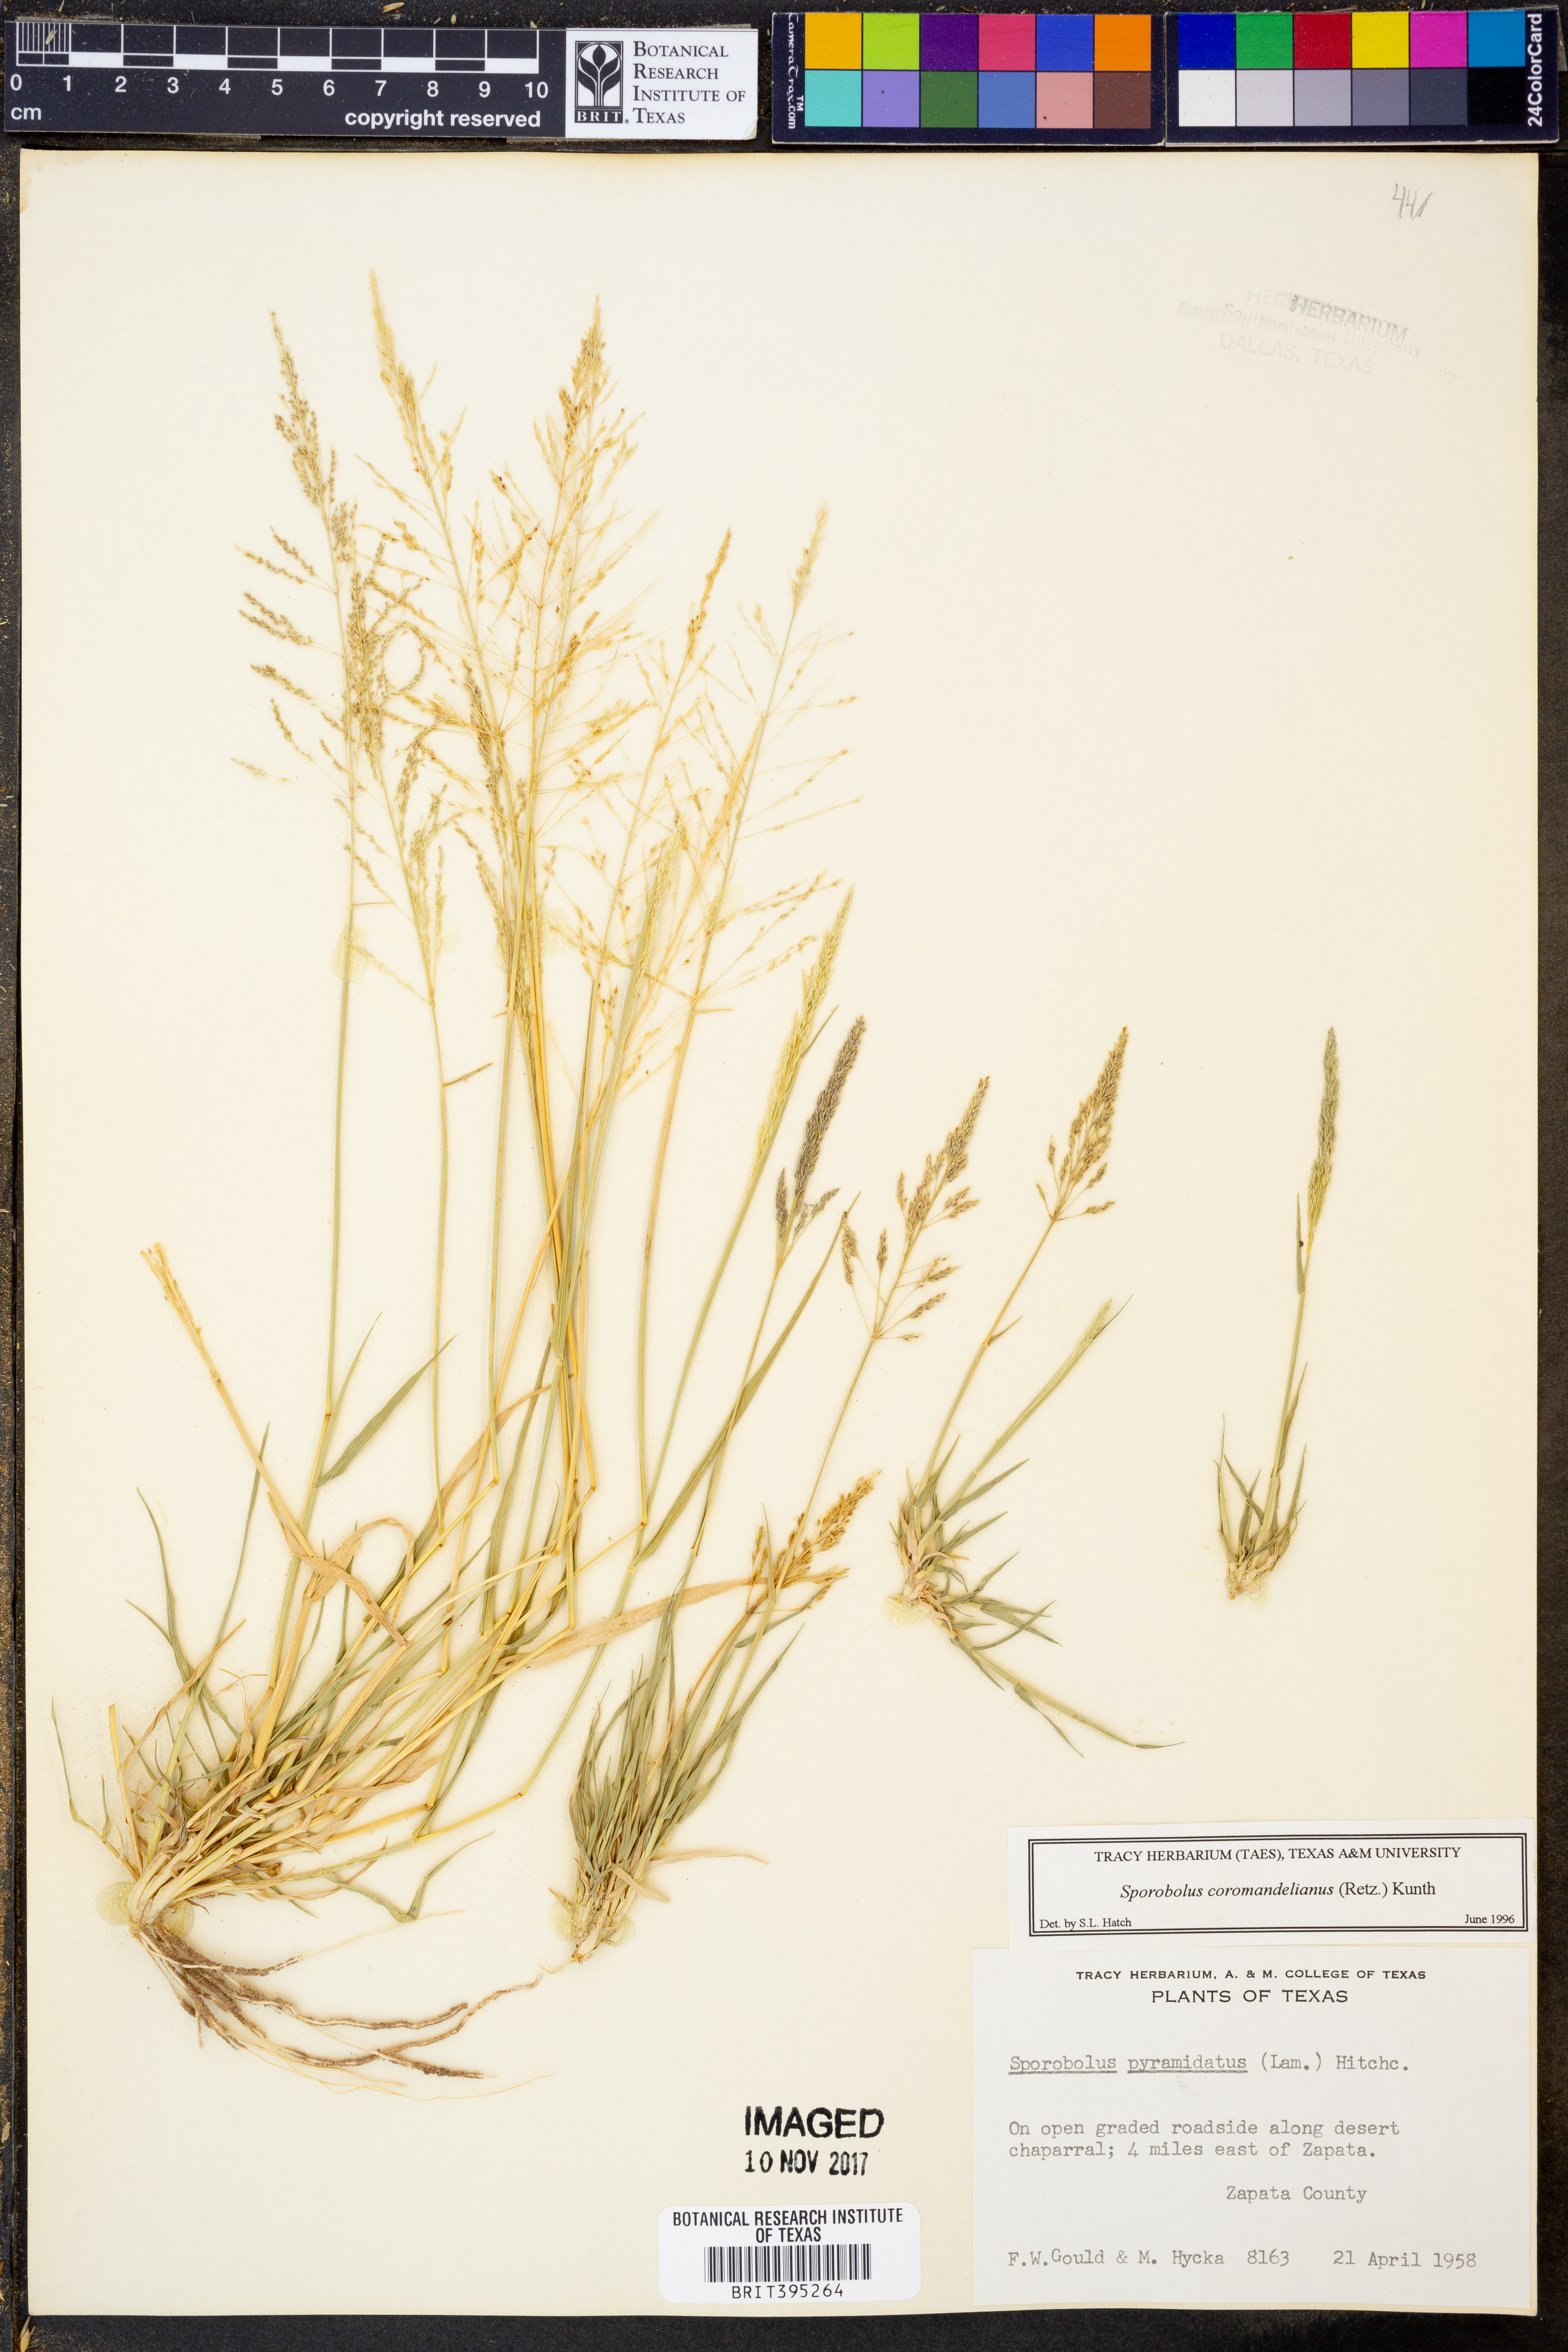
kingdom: Plantae
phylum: Tracheophyta
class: Liliopsida
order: Poales
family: Poaceae
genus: Sporobolus
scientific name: Sporobolus coromandelianus
